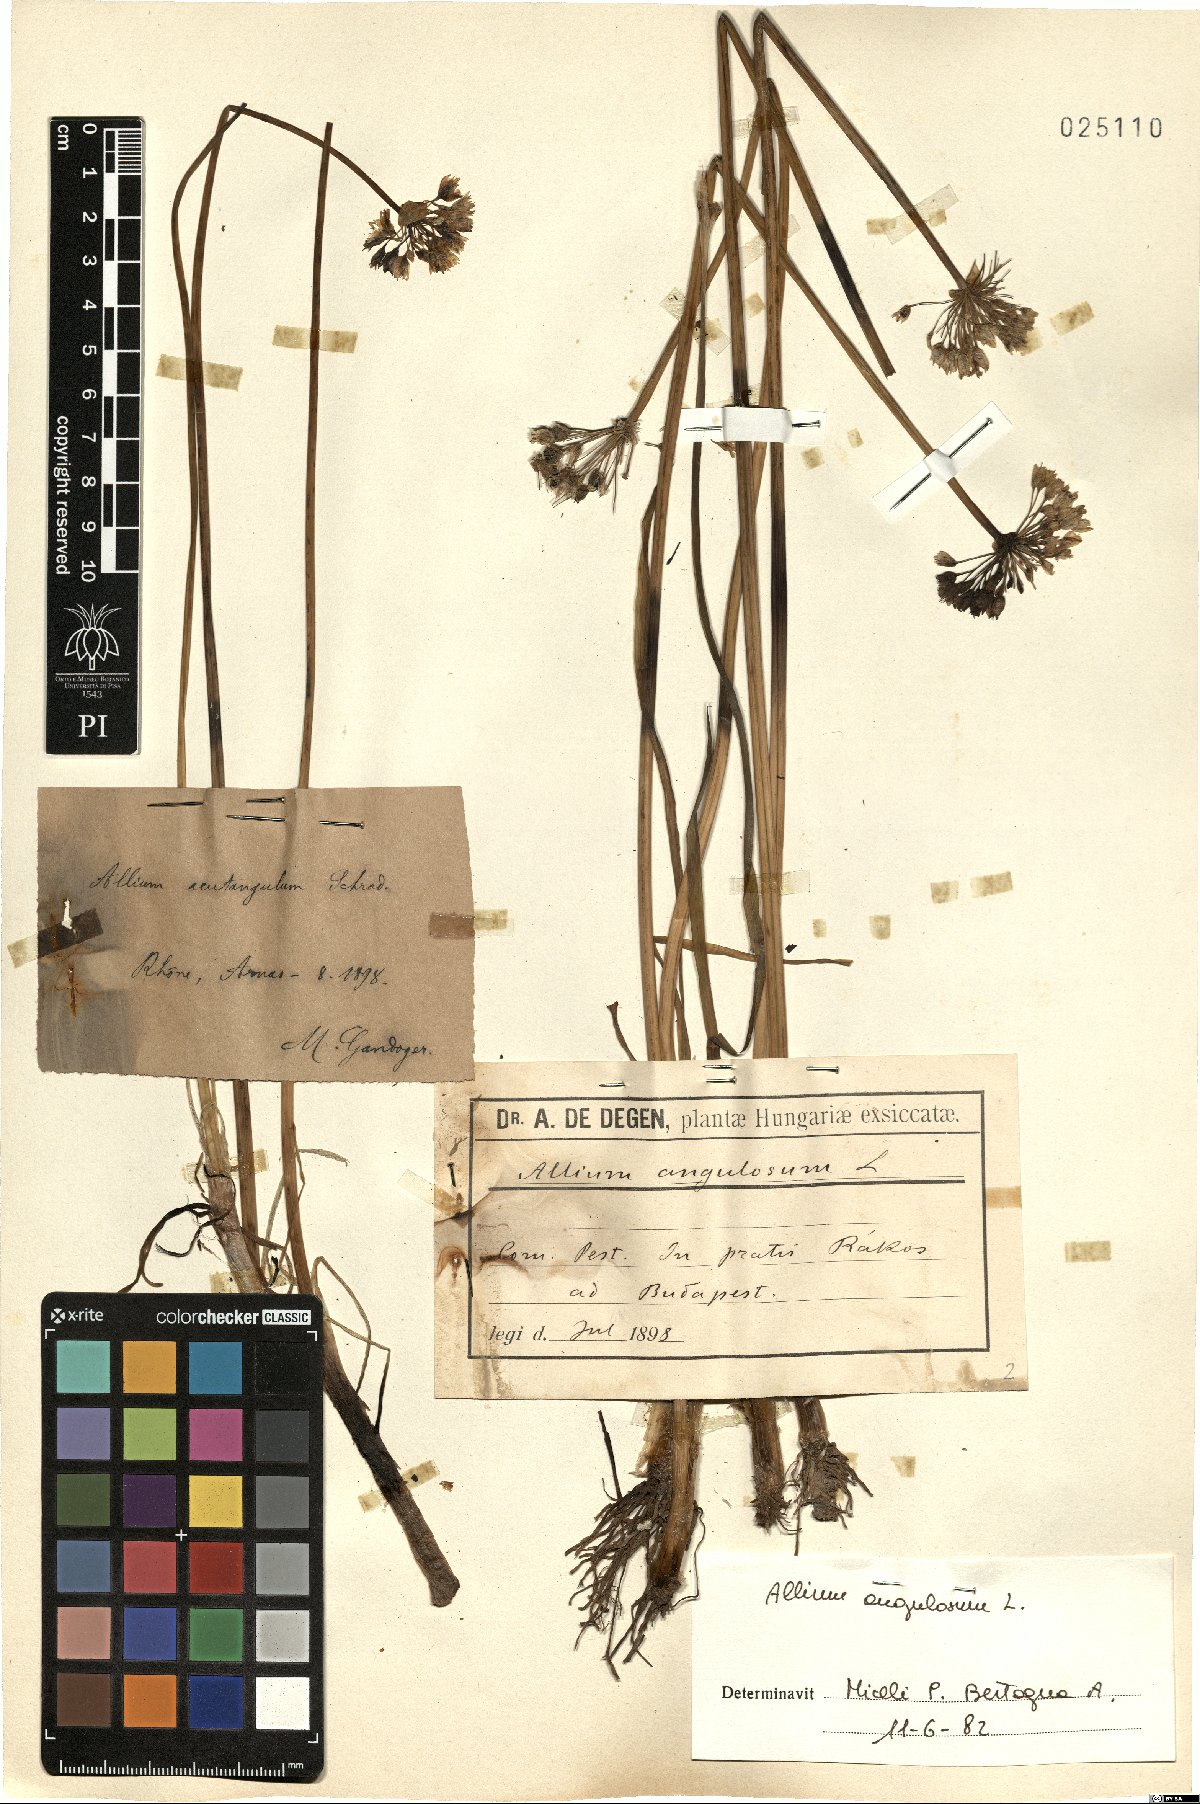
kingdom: Plantae
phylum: Tracheophyta
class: Liliopsida
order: Asparagales
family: Amaryllidaceae
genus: Allium
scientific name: Allium angulosum
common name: Mouse garlic
